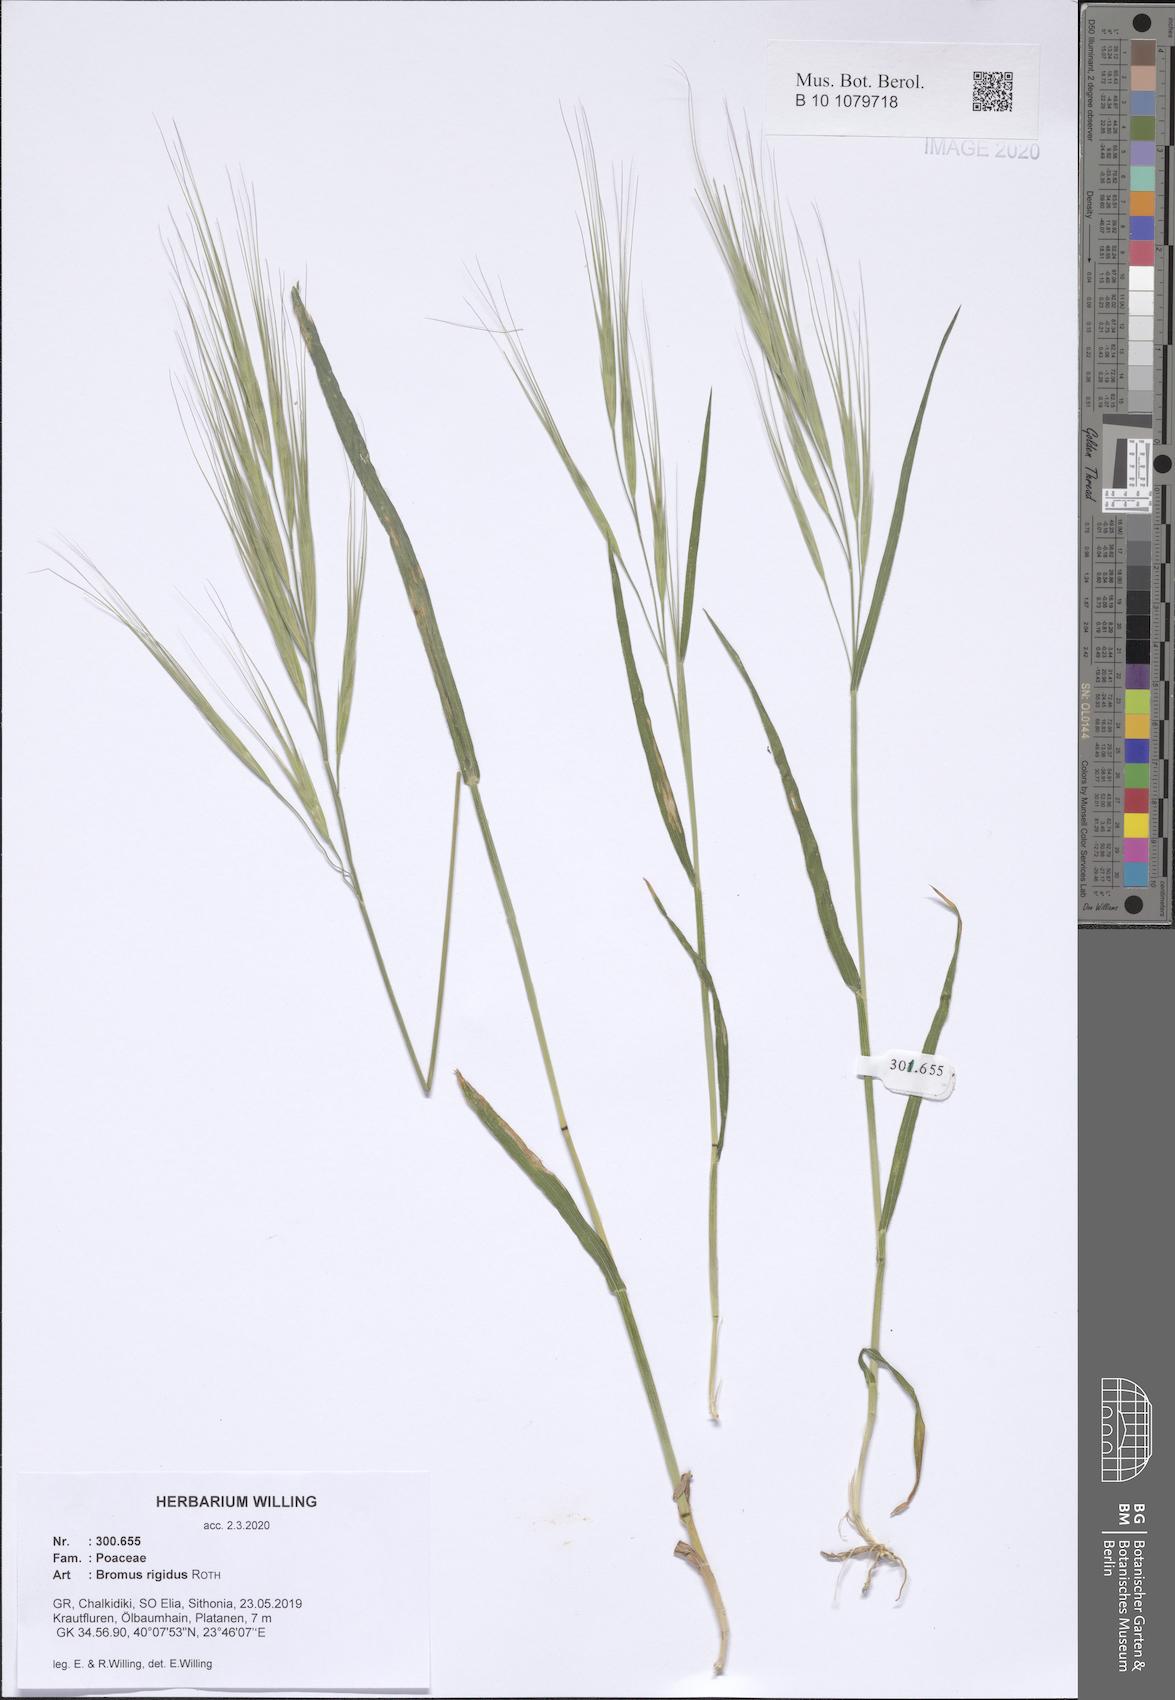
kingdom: Plantae
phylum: Tracheophyta
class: Liliopsida
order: Poales
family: Poaceae
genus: Bromus
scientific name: Bromus rigidus
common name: Ripgut brome
